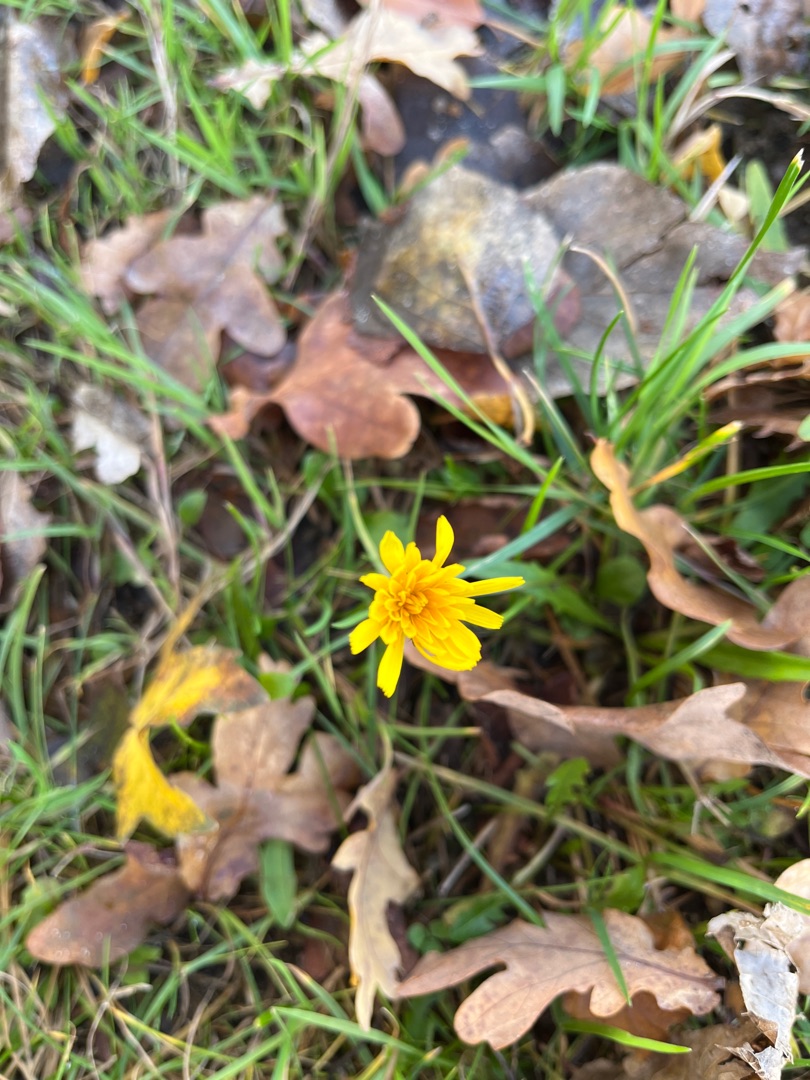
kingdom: Plantae
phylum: Tracheophyta
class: Magnoliopsida
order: Asterales
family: Asteraceae
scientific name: Asteraceae
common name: Kurvblomstfamilien
